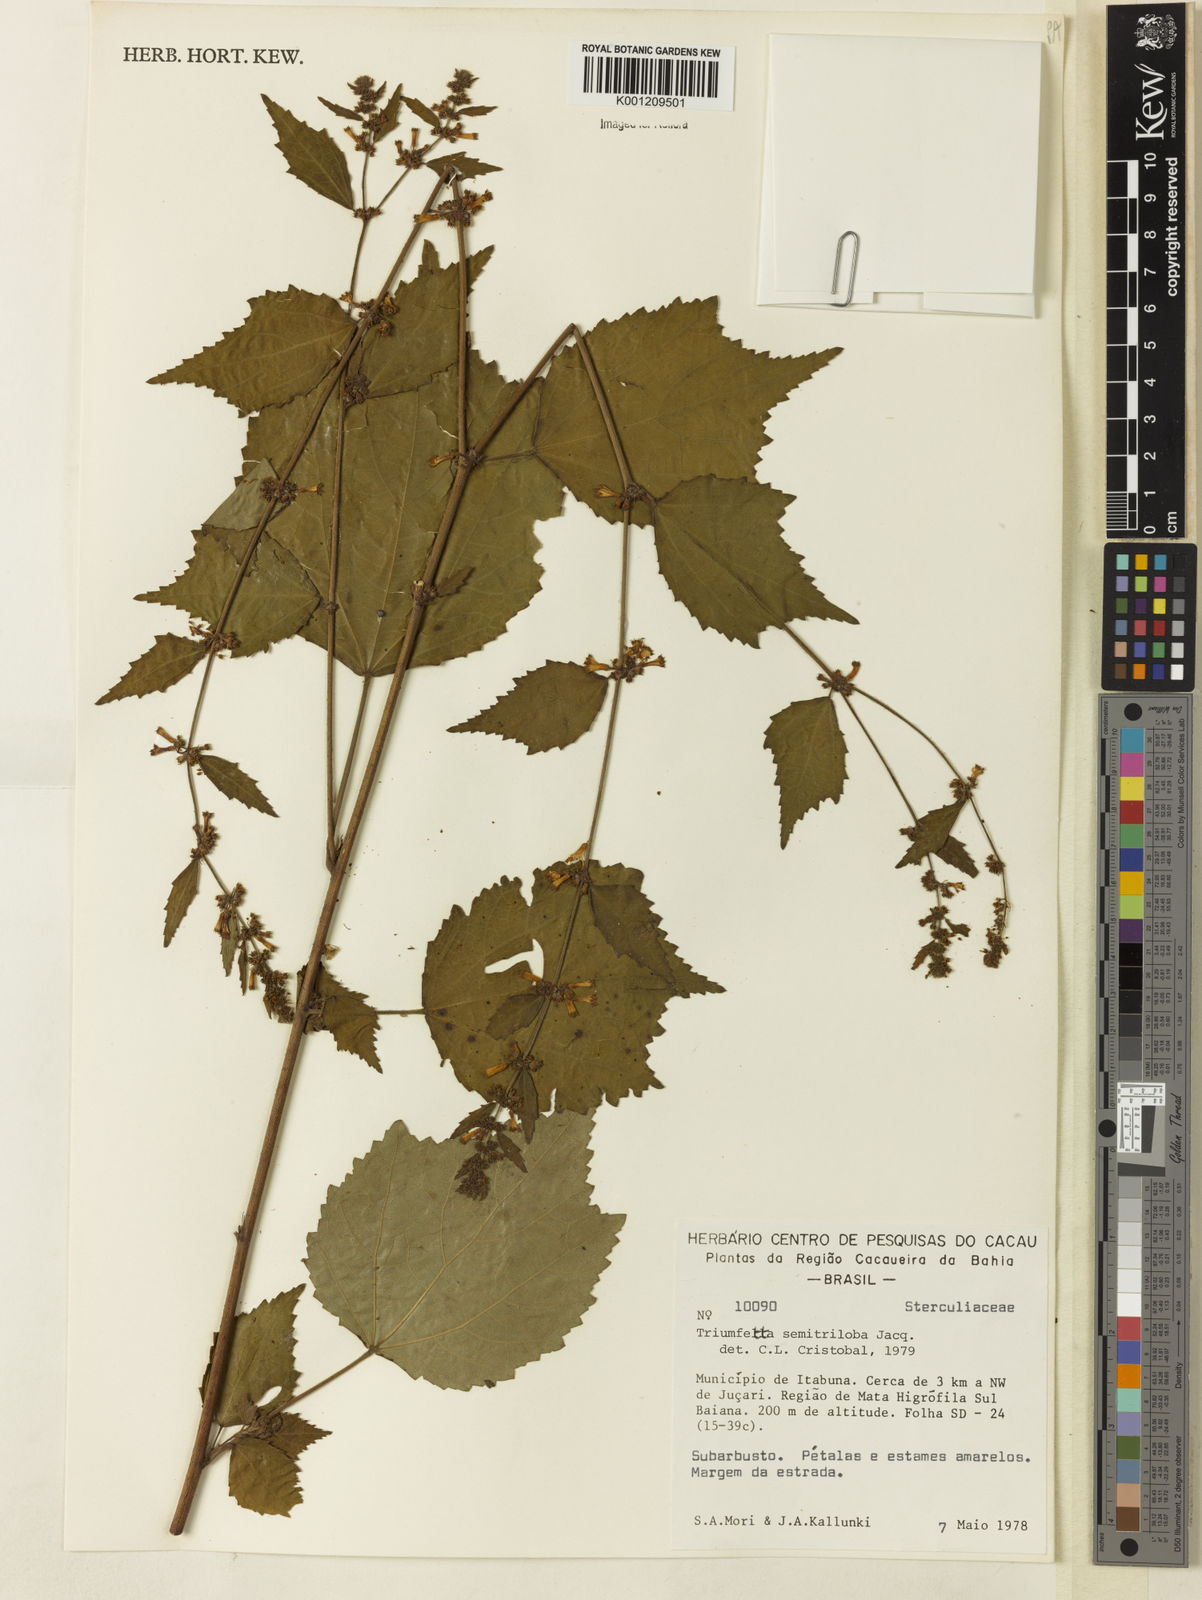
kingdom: Plantae
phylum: Tracheophyta
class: Magnoliopsida
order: Malvales
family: Malvaceae
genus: Triumfetta
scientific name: Triumfetta semitriloba
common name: Sacramento burbark
